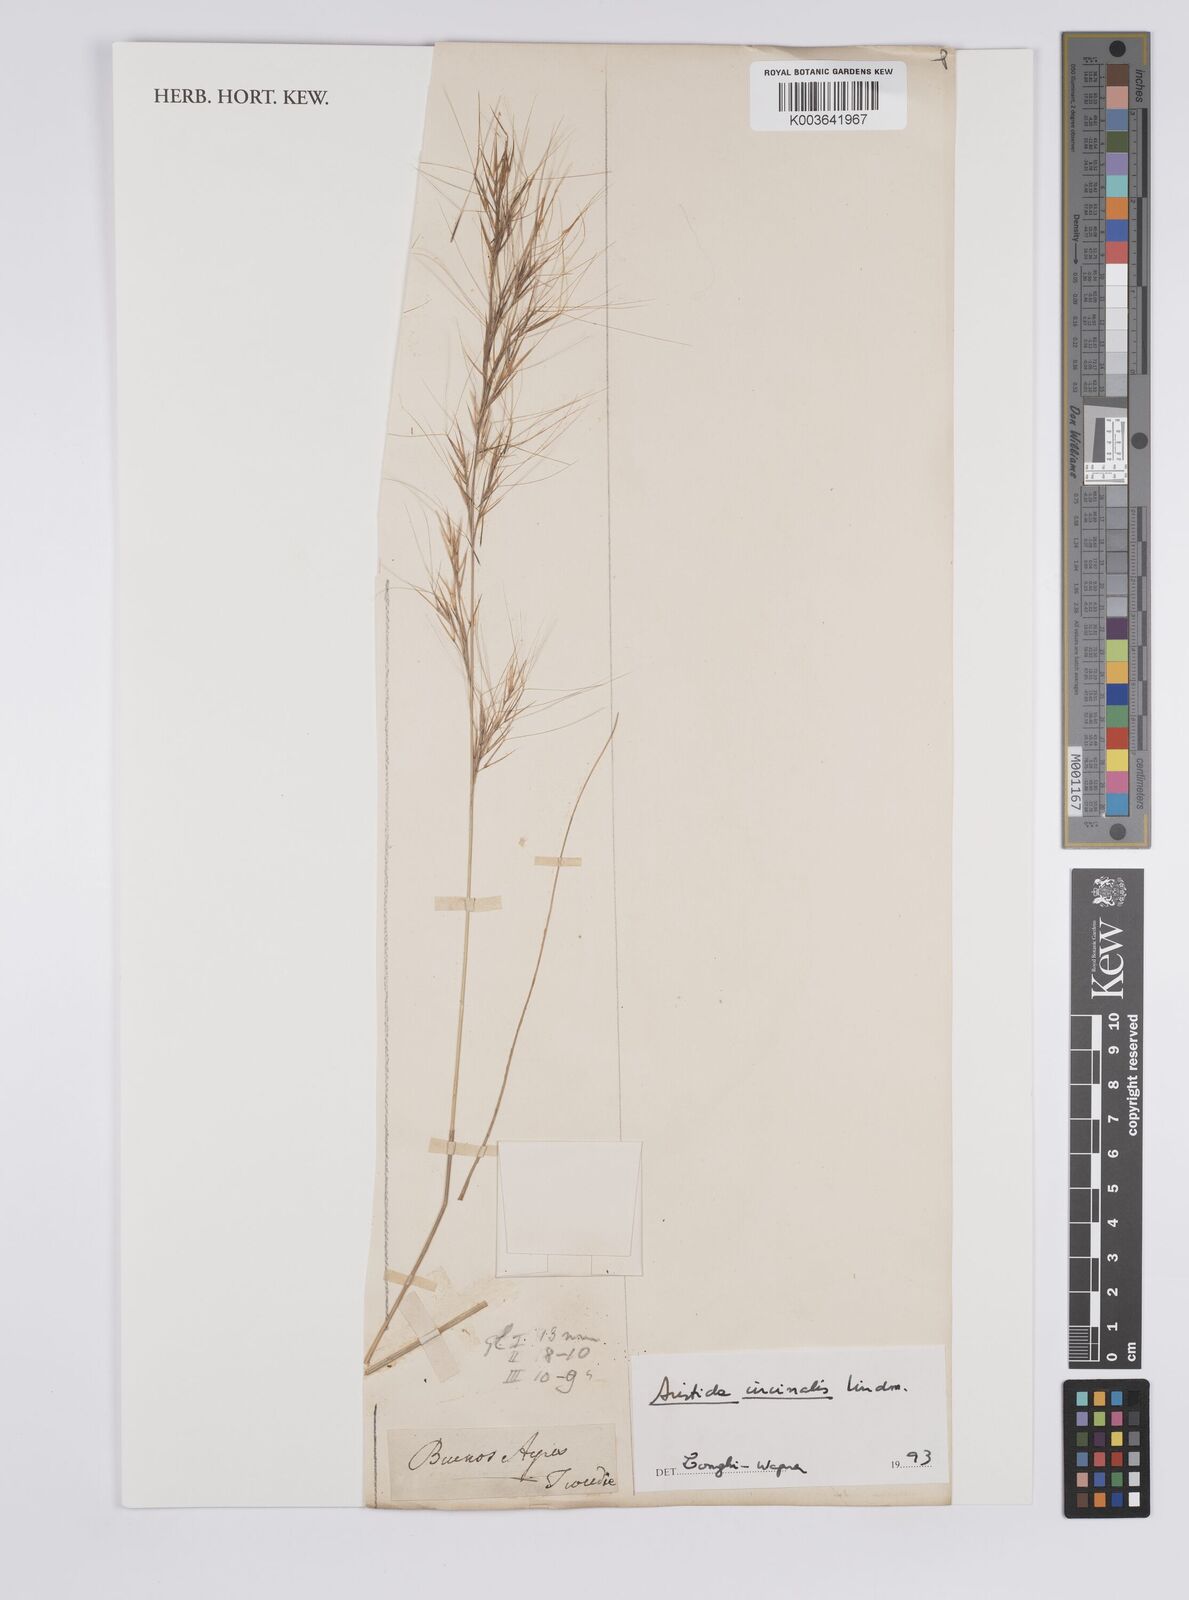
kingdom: Plantae
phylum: Tracheophyta
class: Liliopsida
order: Poales
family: Poaceae
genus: Aristida
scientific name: Aristida circinalis
